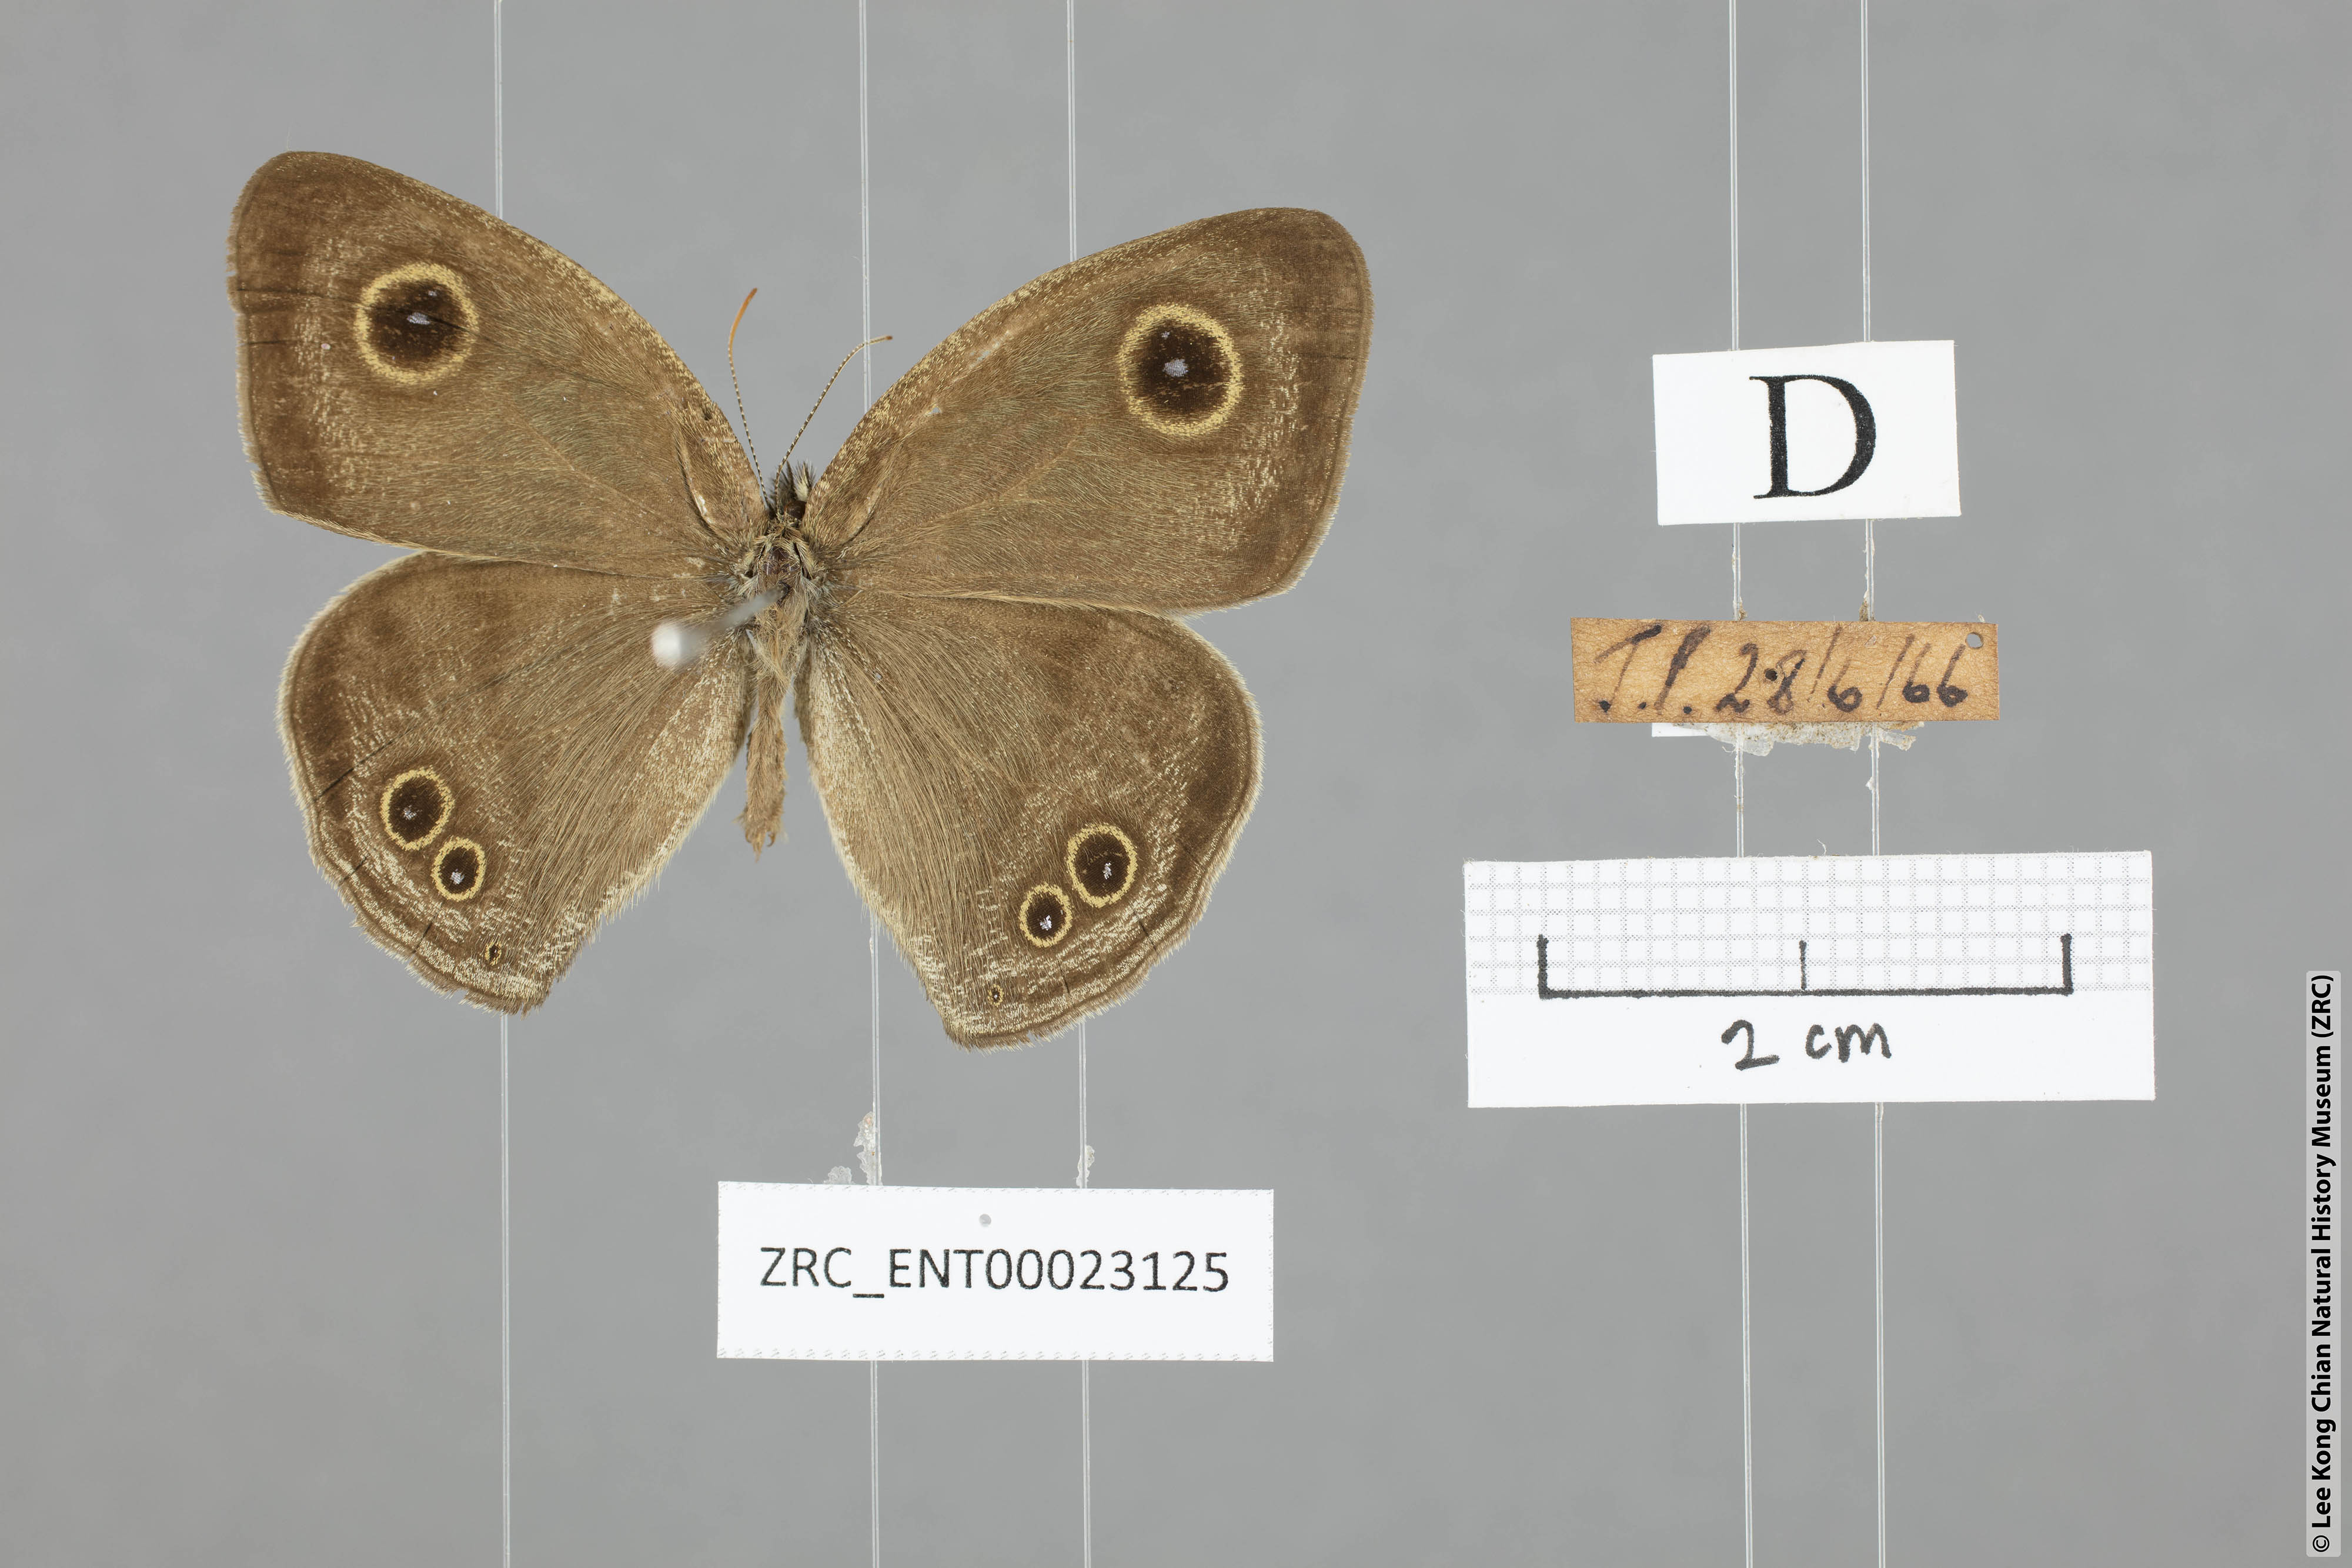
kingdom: Animalia
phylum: Arthropoda
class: Insecta
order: Lepidoptera
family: Nymphalidae
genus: Ypthima
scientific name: Ypthima savara
